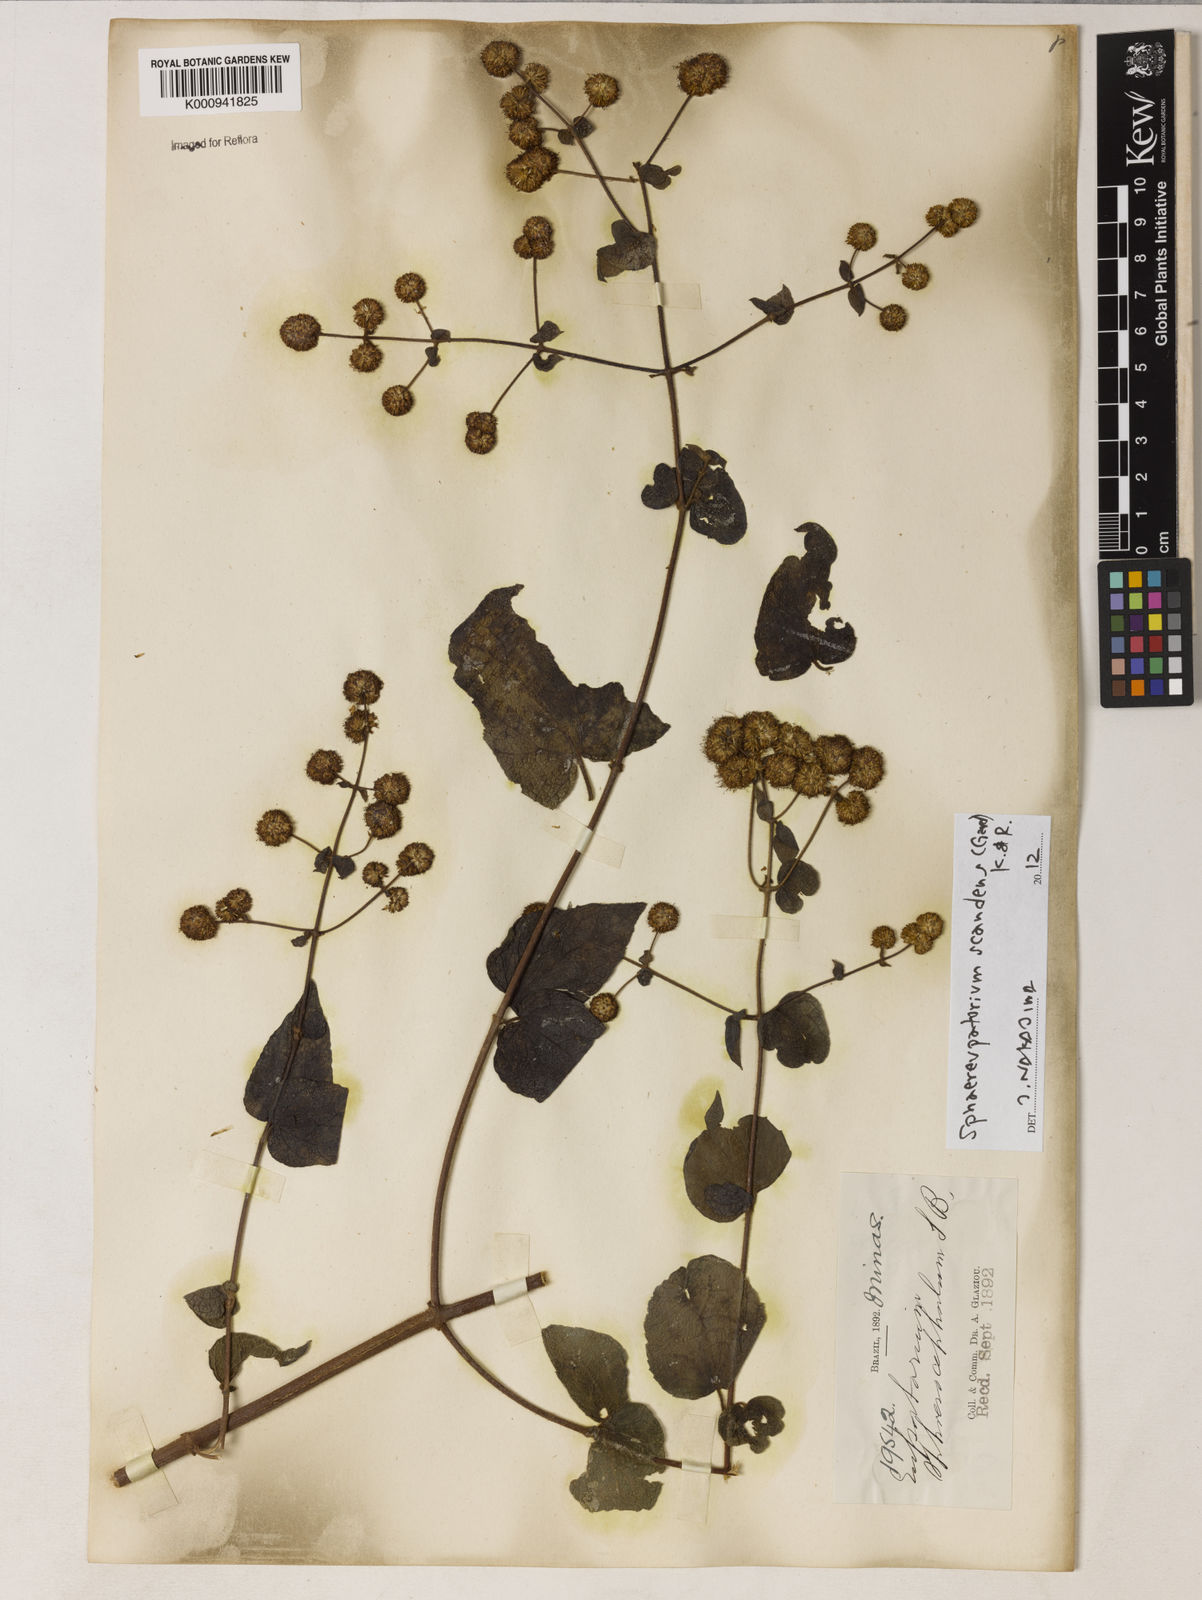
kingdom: Plantae
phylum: Tracheophyta
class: Magnoliopsida
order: Asterales
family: Asteraceae
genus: Sphaereupatorium
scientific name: Sphaereupatorium scandens
